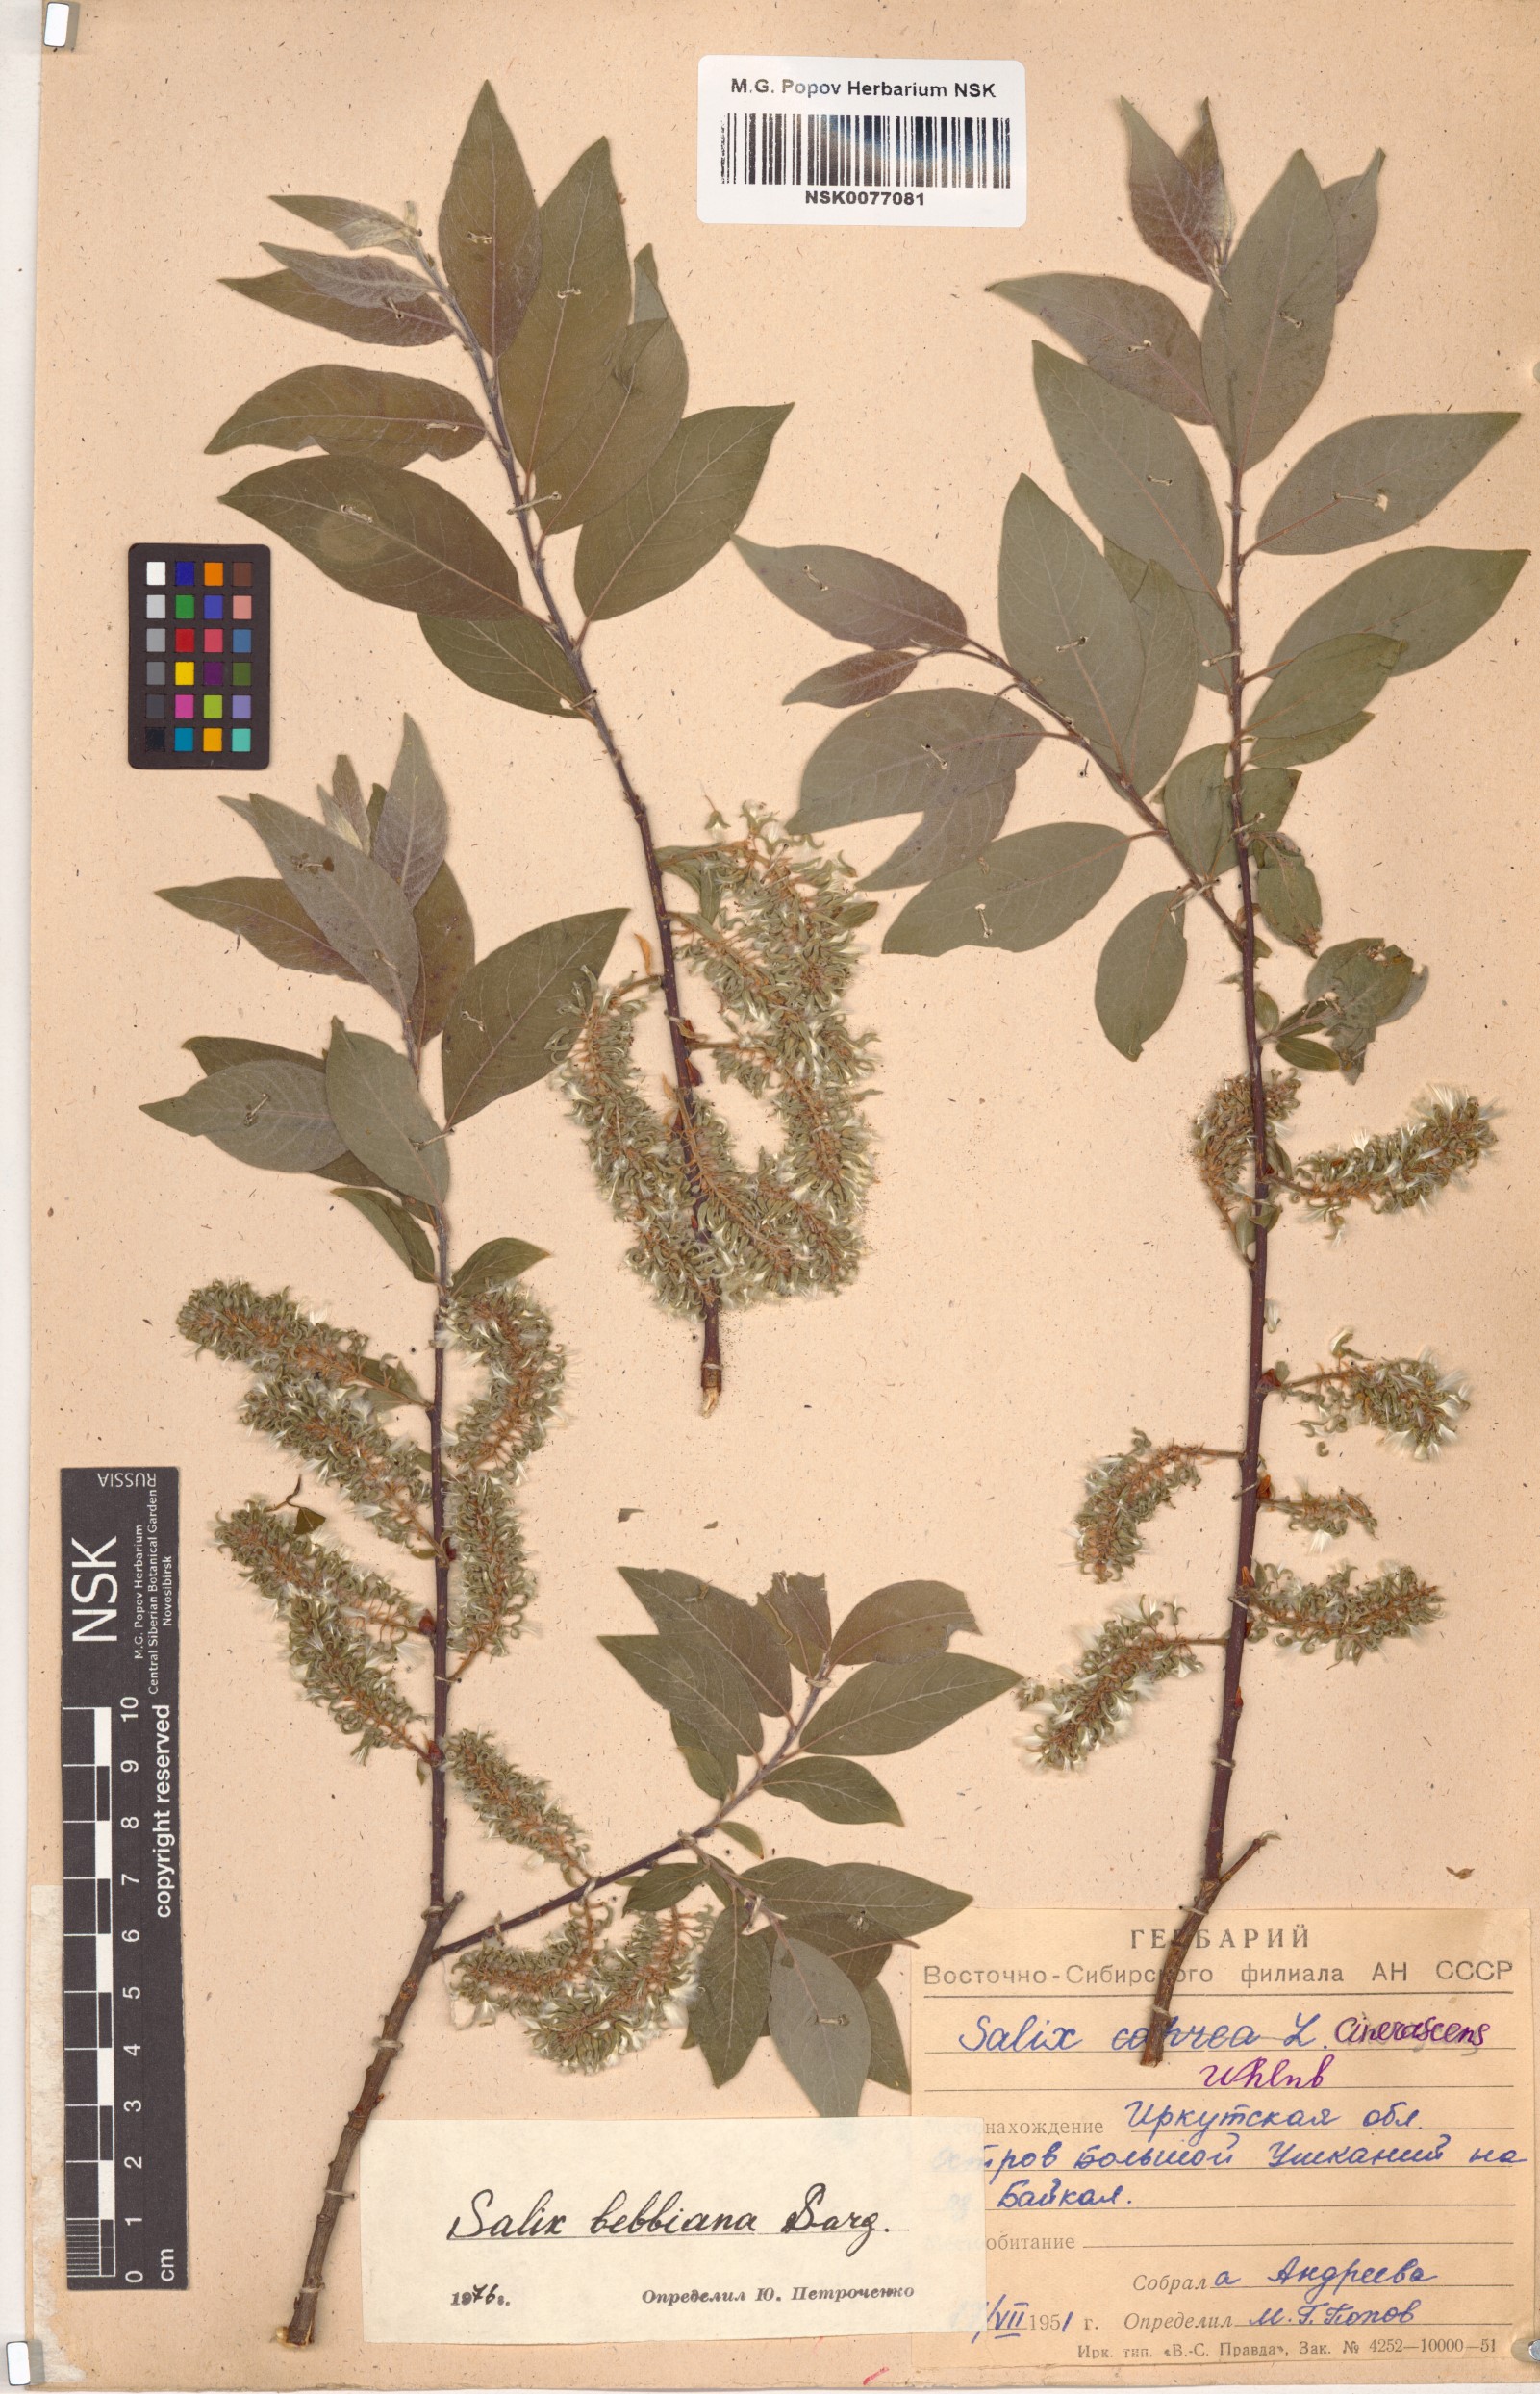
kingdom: Plantae
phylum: Tracheophyta
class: Magnoliopsida
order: Malpighiales
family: Salicaceae
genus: Salix
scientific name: Salix bebbiana
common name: Bebb's willow
